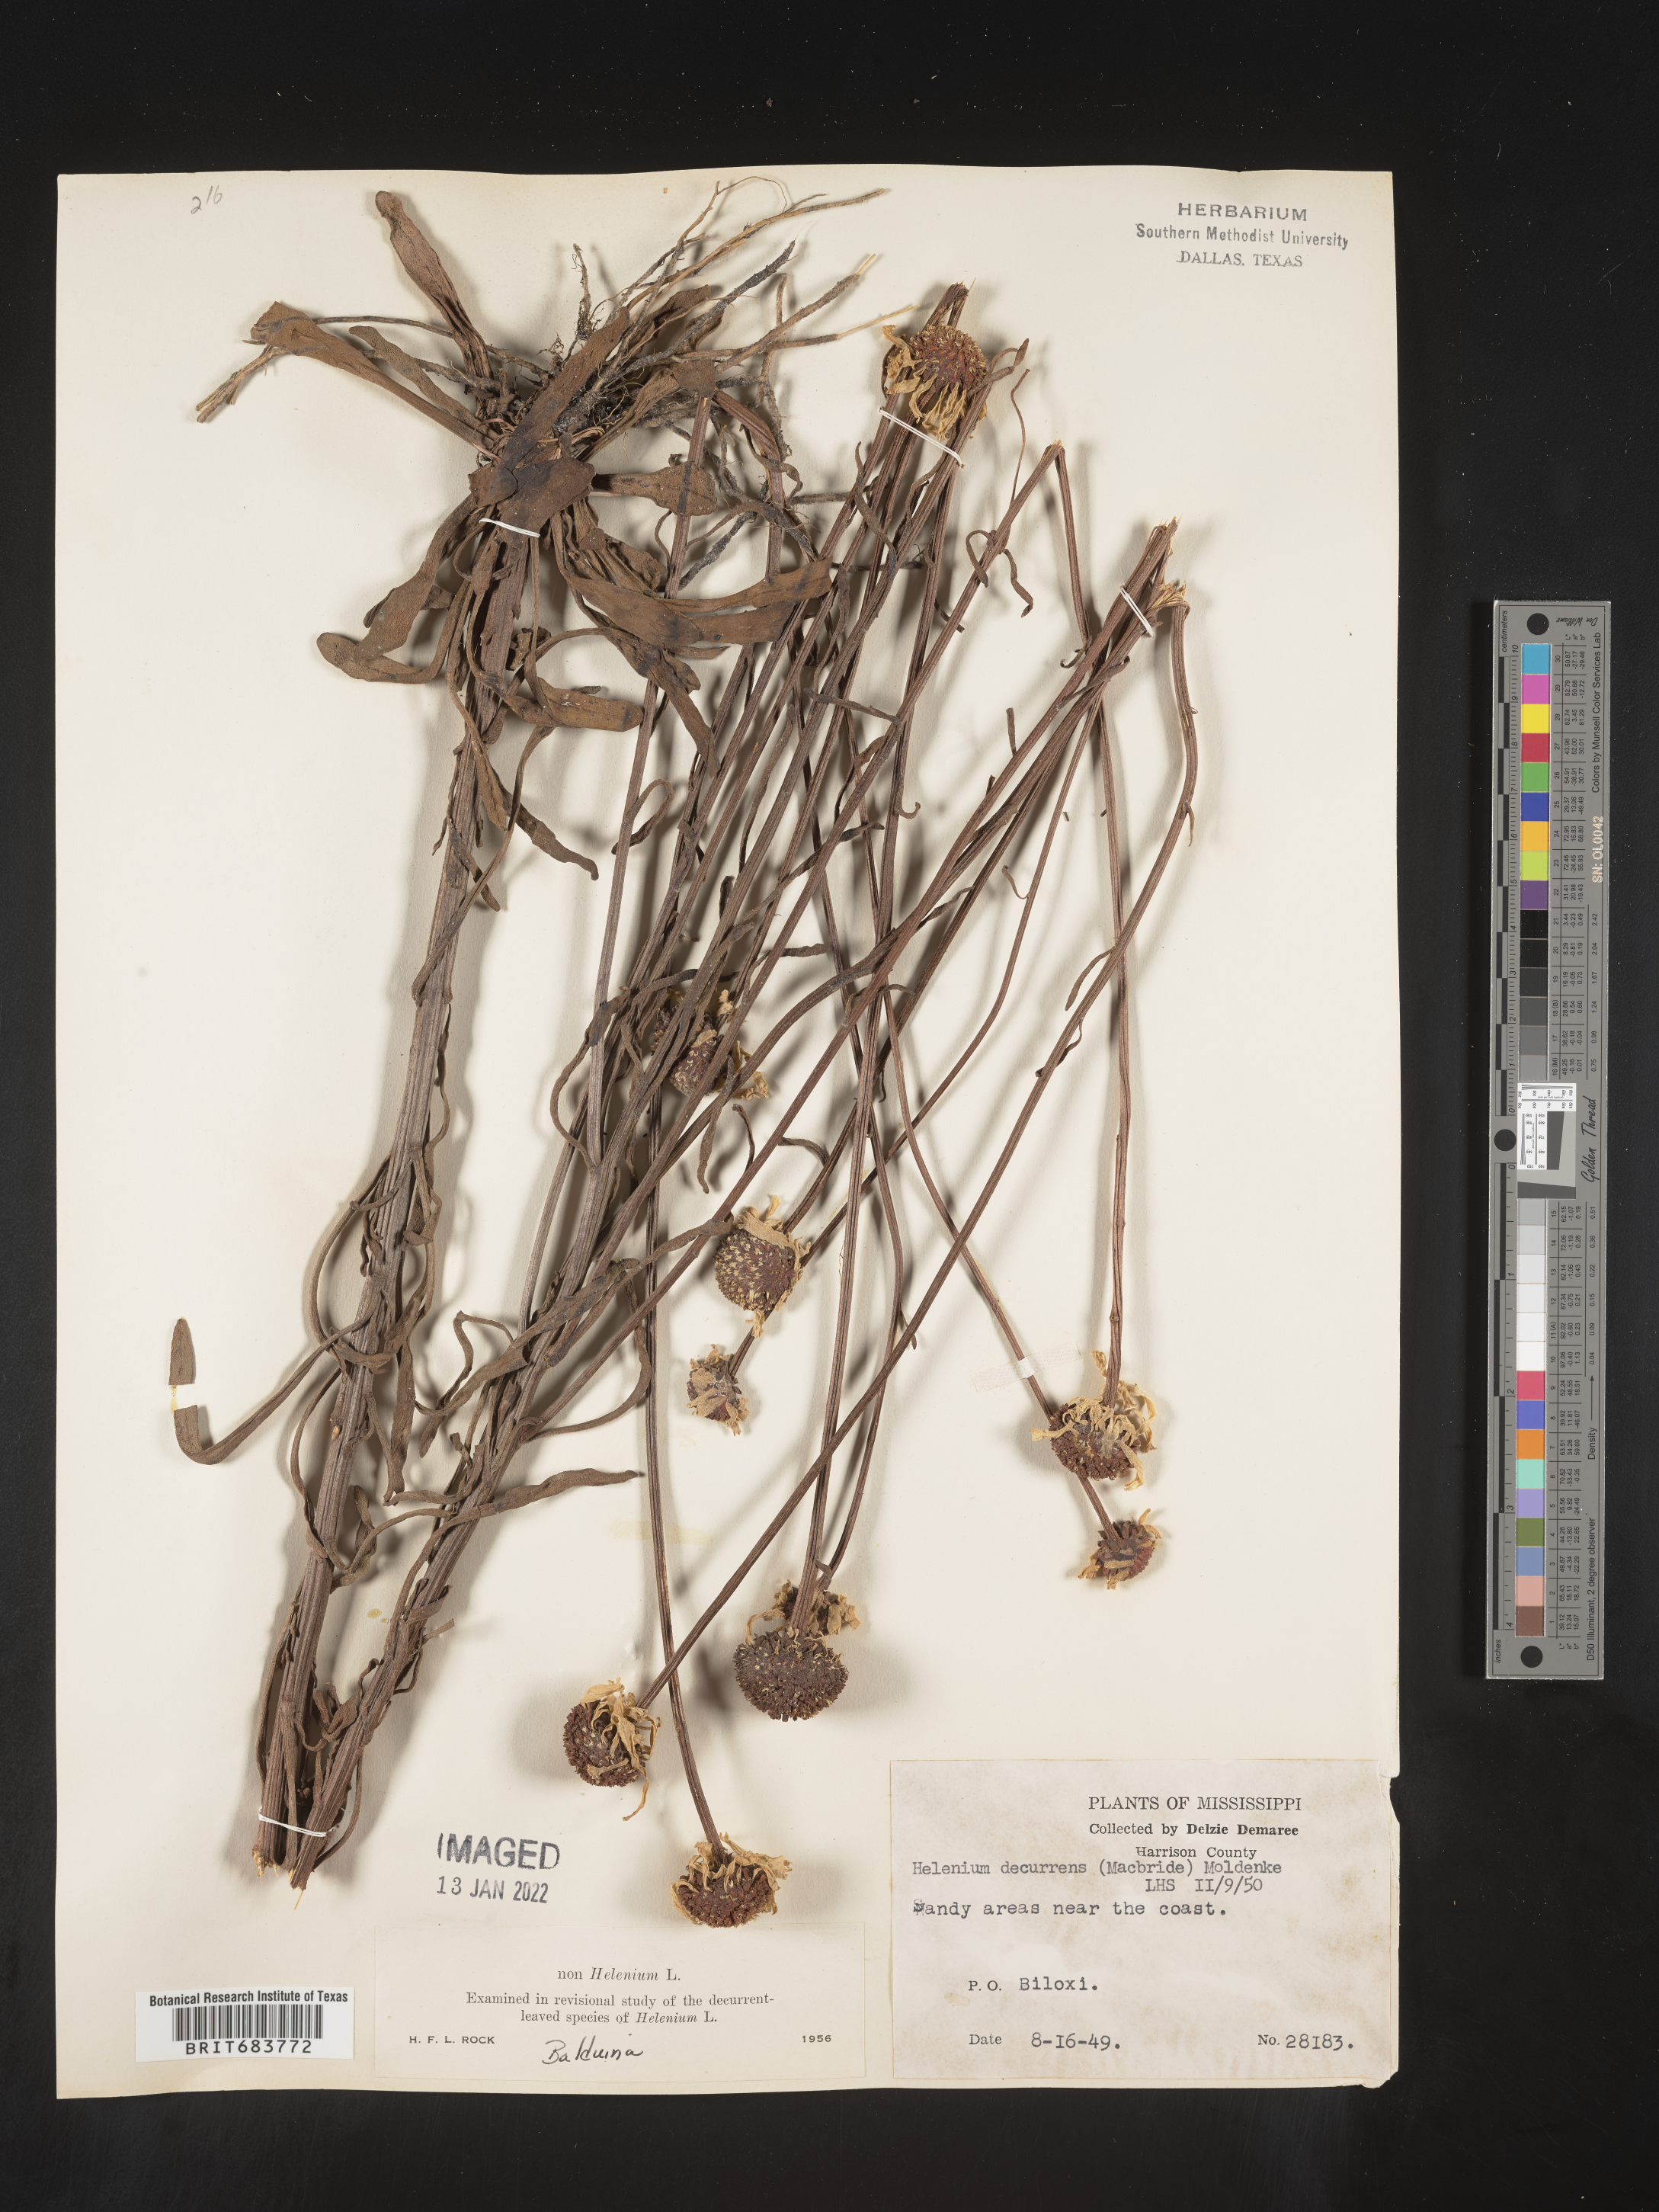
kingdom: Plantae
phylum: Tracheophyta
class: Magnoliopsida
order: Asterales
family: Asteraceae
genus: Balduina
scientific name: Balduina uniflora
